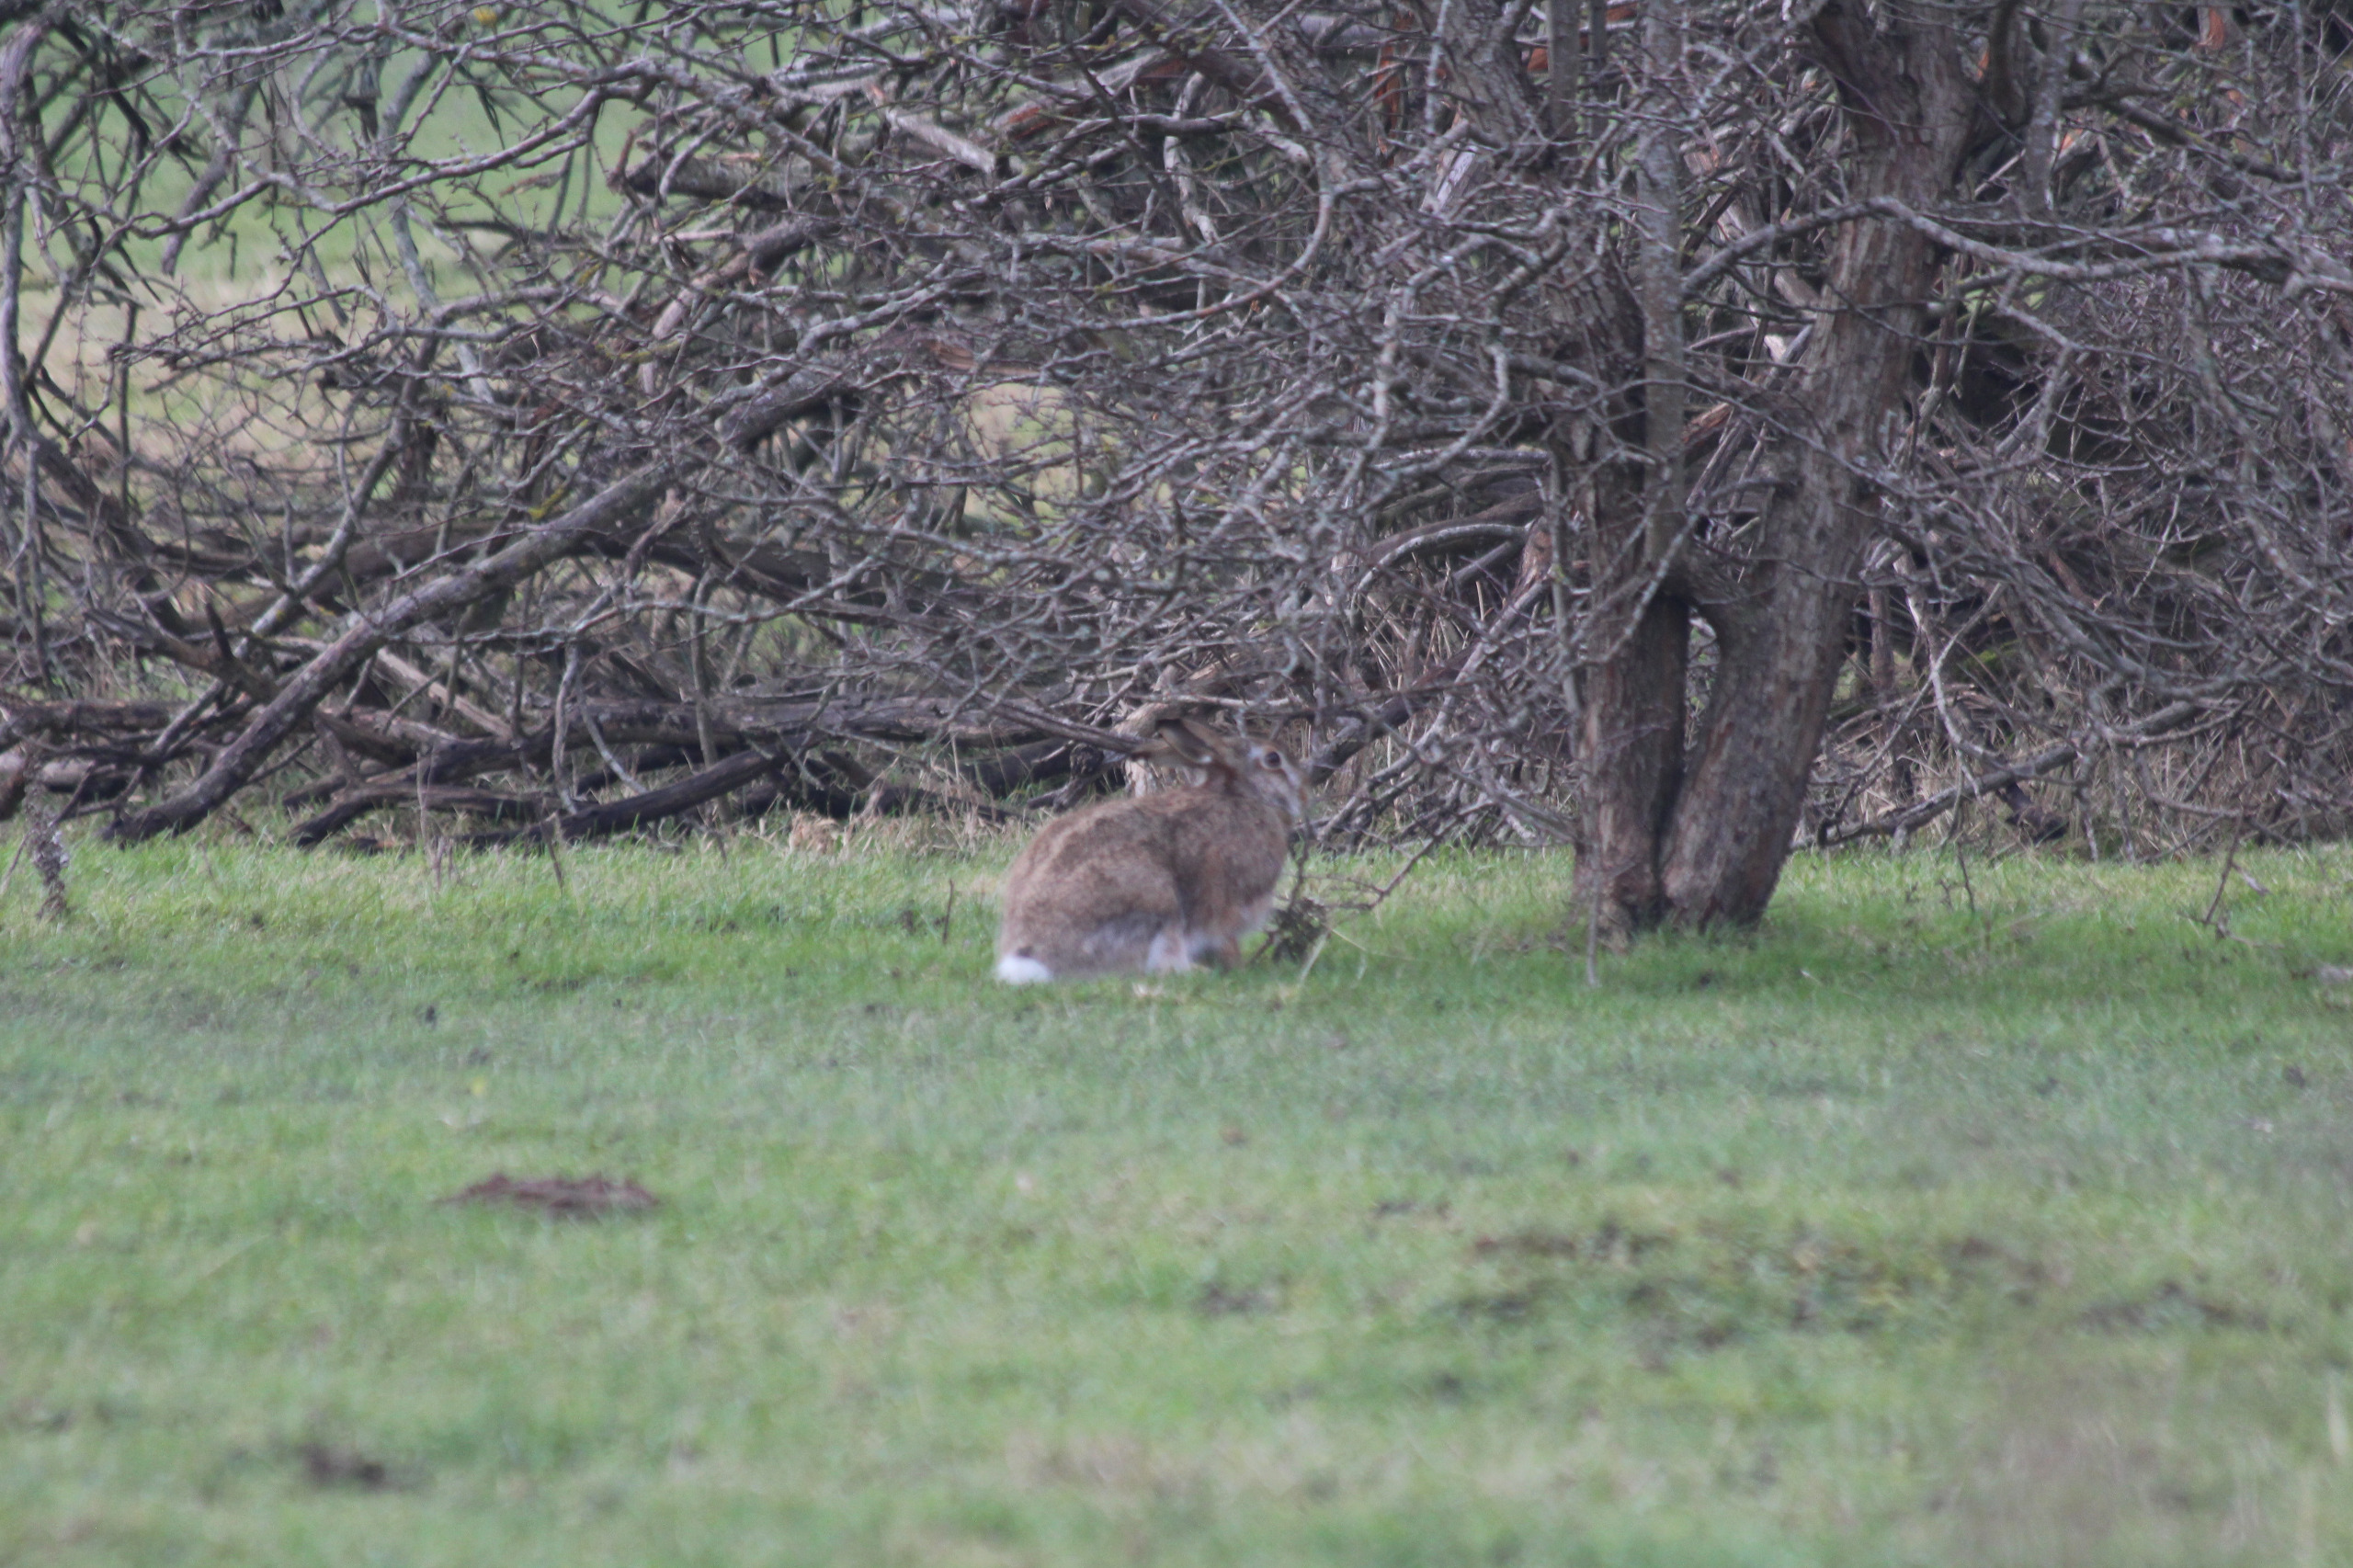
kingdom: Animalia
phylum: Chordata
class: Mammalia
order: Lagomorpha
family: Leporidae
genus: Lepus
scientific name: Lepus europaeus
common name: Hare
